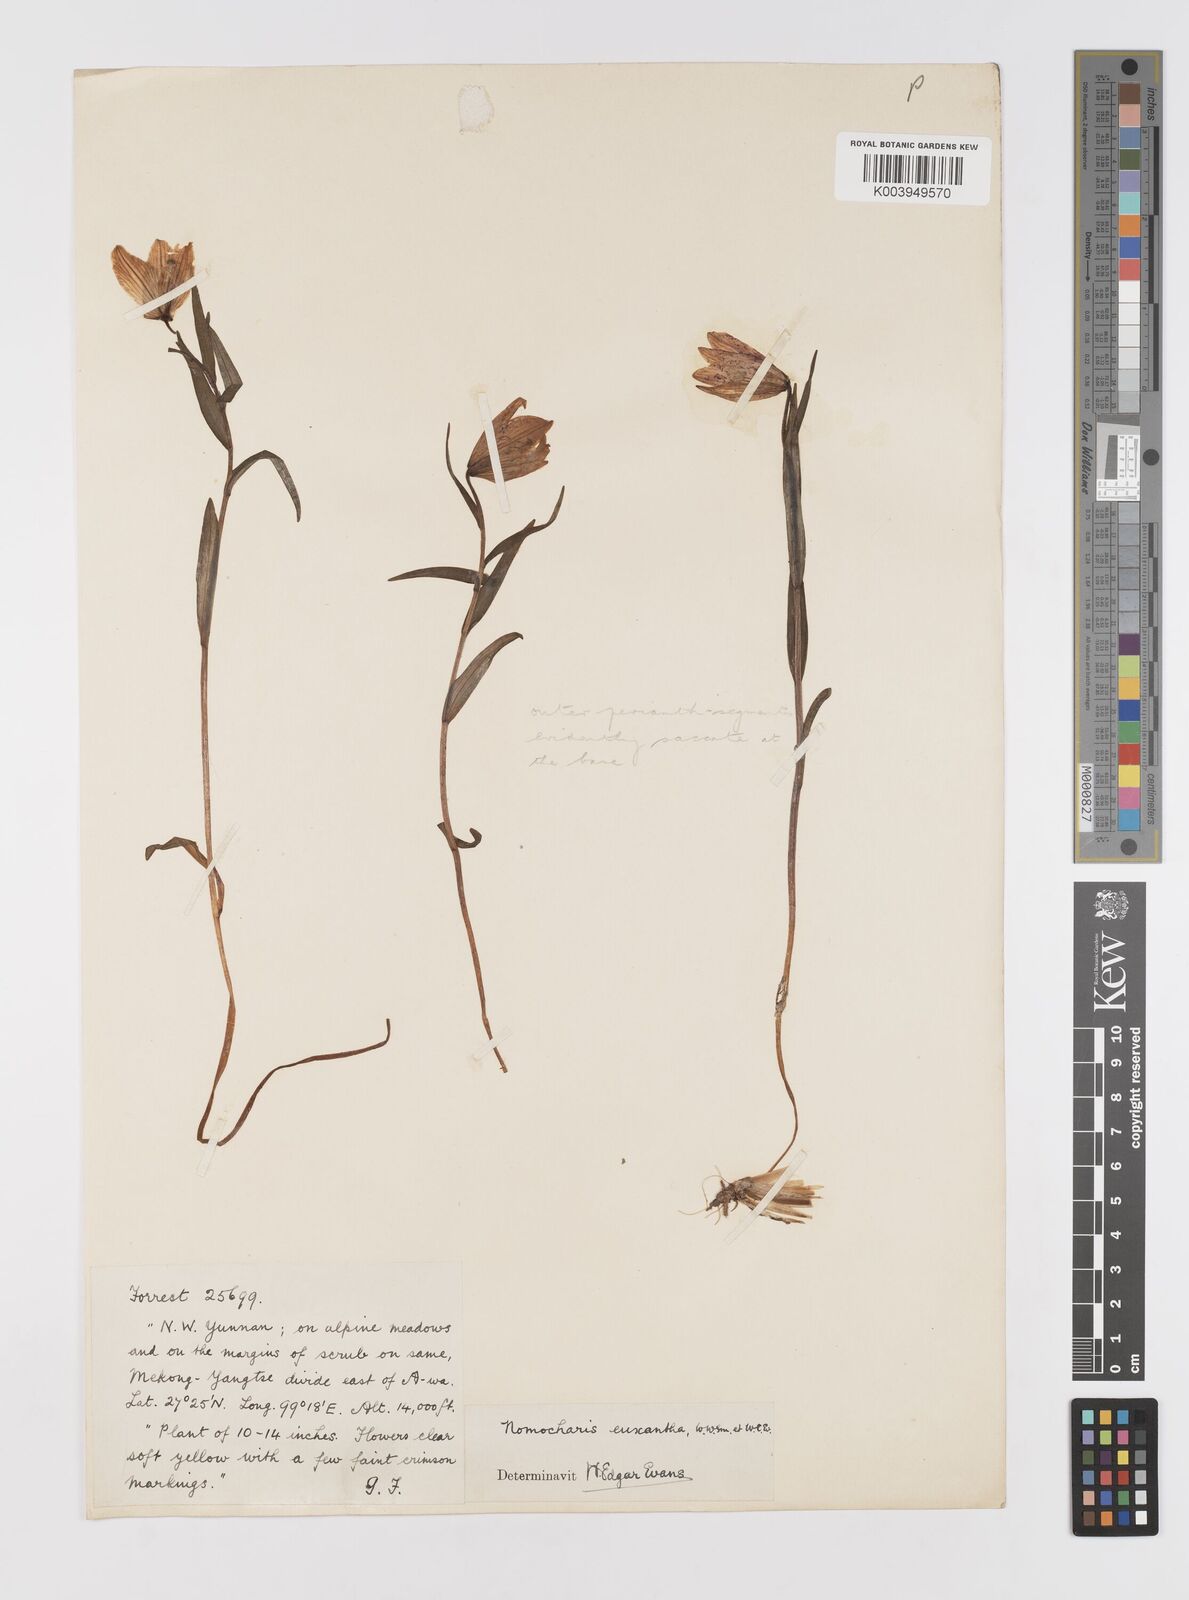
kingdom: Plantae
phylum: Tracheophyta
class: Liliopsida
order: Liliales
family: Liliaceae
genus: Lilium
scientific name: Lilium nanum
